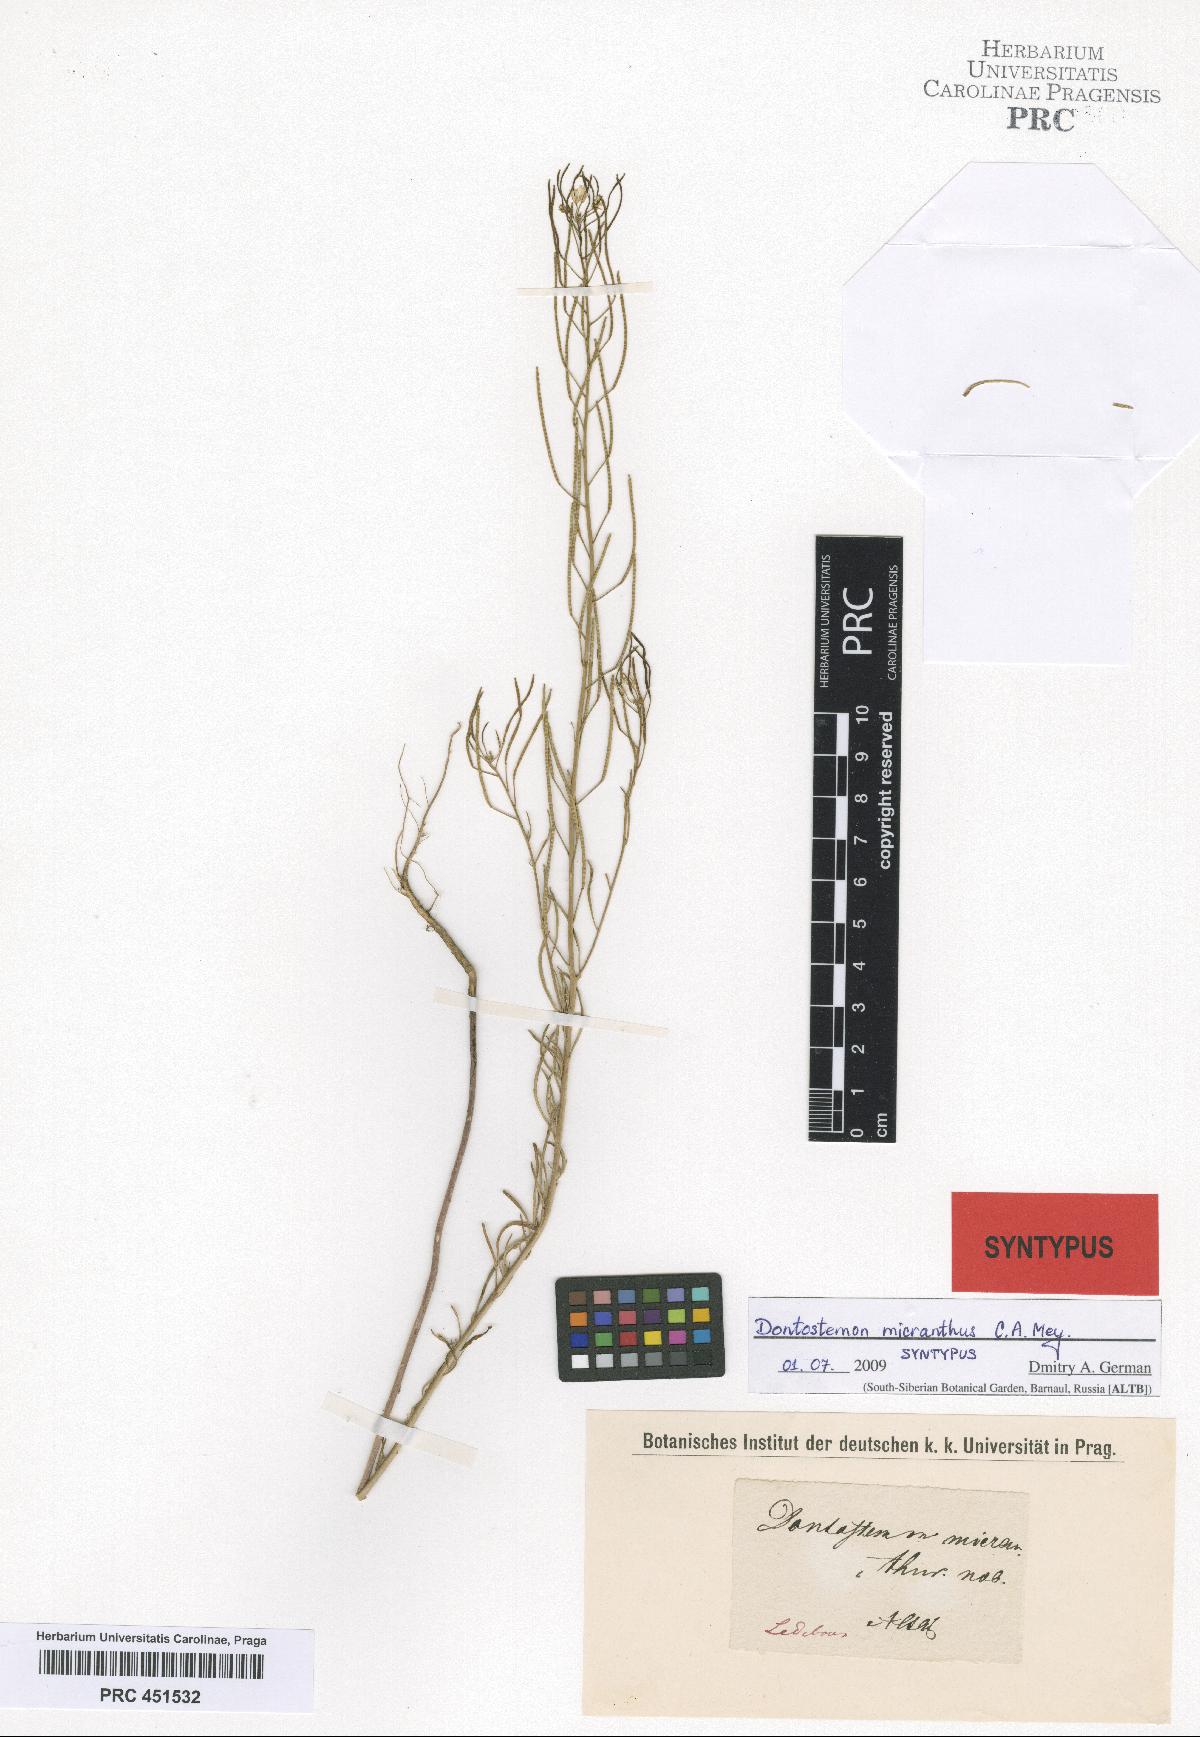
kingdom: Plantae
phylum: Tracheophyta
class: Magnoliopsida
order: Brassicales
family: Brassicaceae
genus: Dontostemon
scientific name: Dontostemon micranthus
